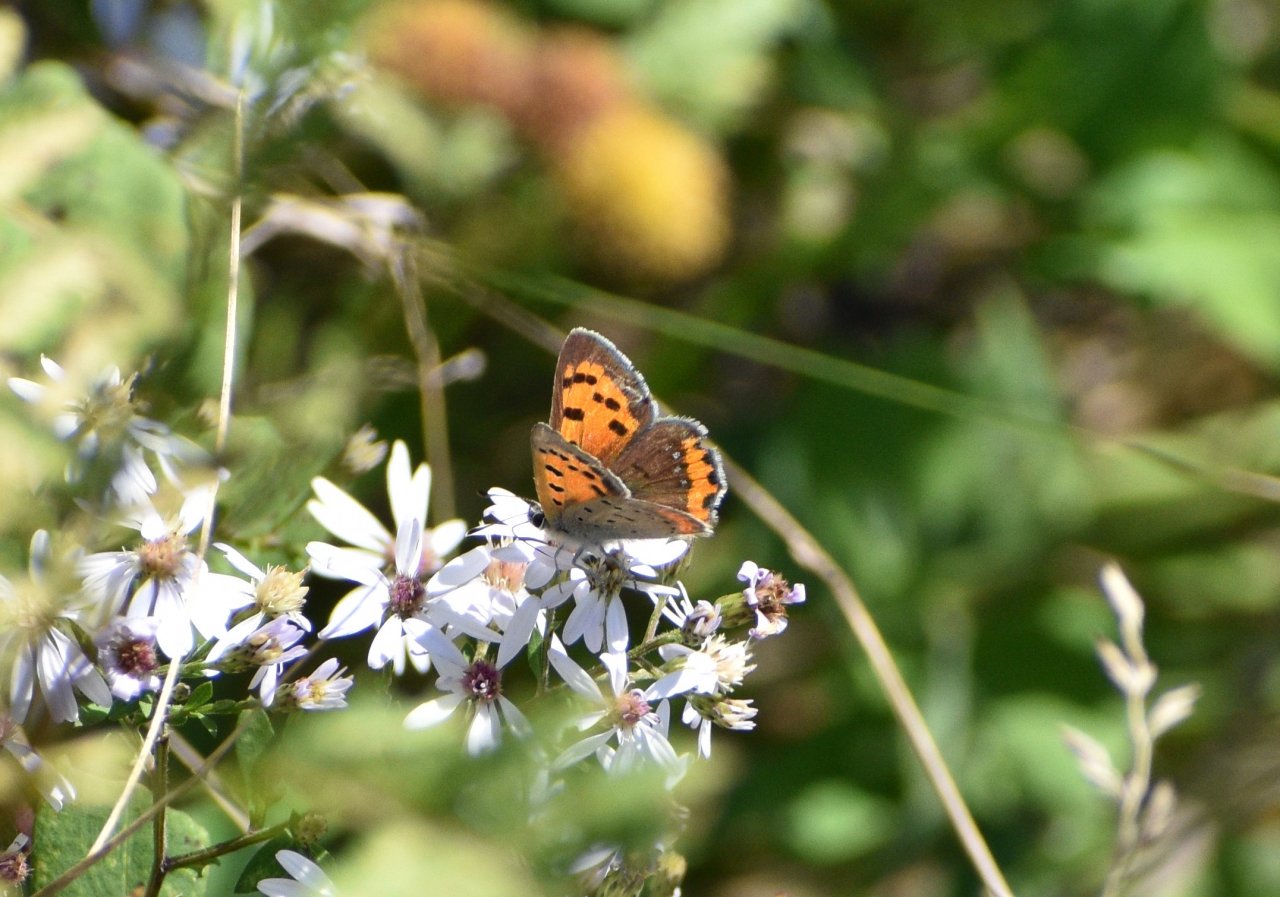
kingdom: Animalia
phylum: Arthropoda
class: Insecta
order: Lepidoptera
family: Lycaenidae
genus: Lycaena
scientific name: Lycaena phlaeas
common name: American Copper
